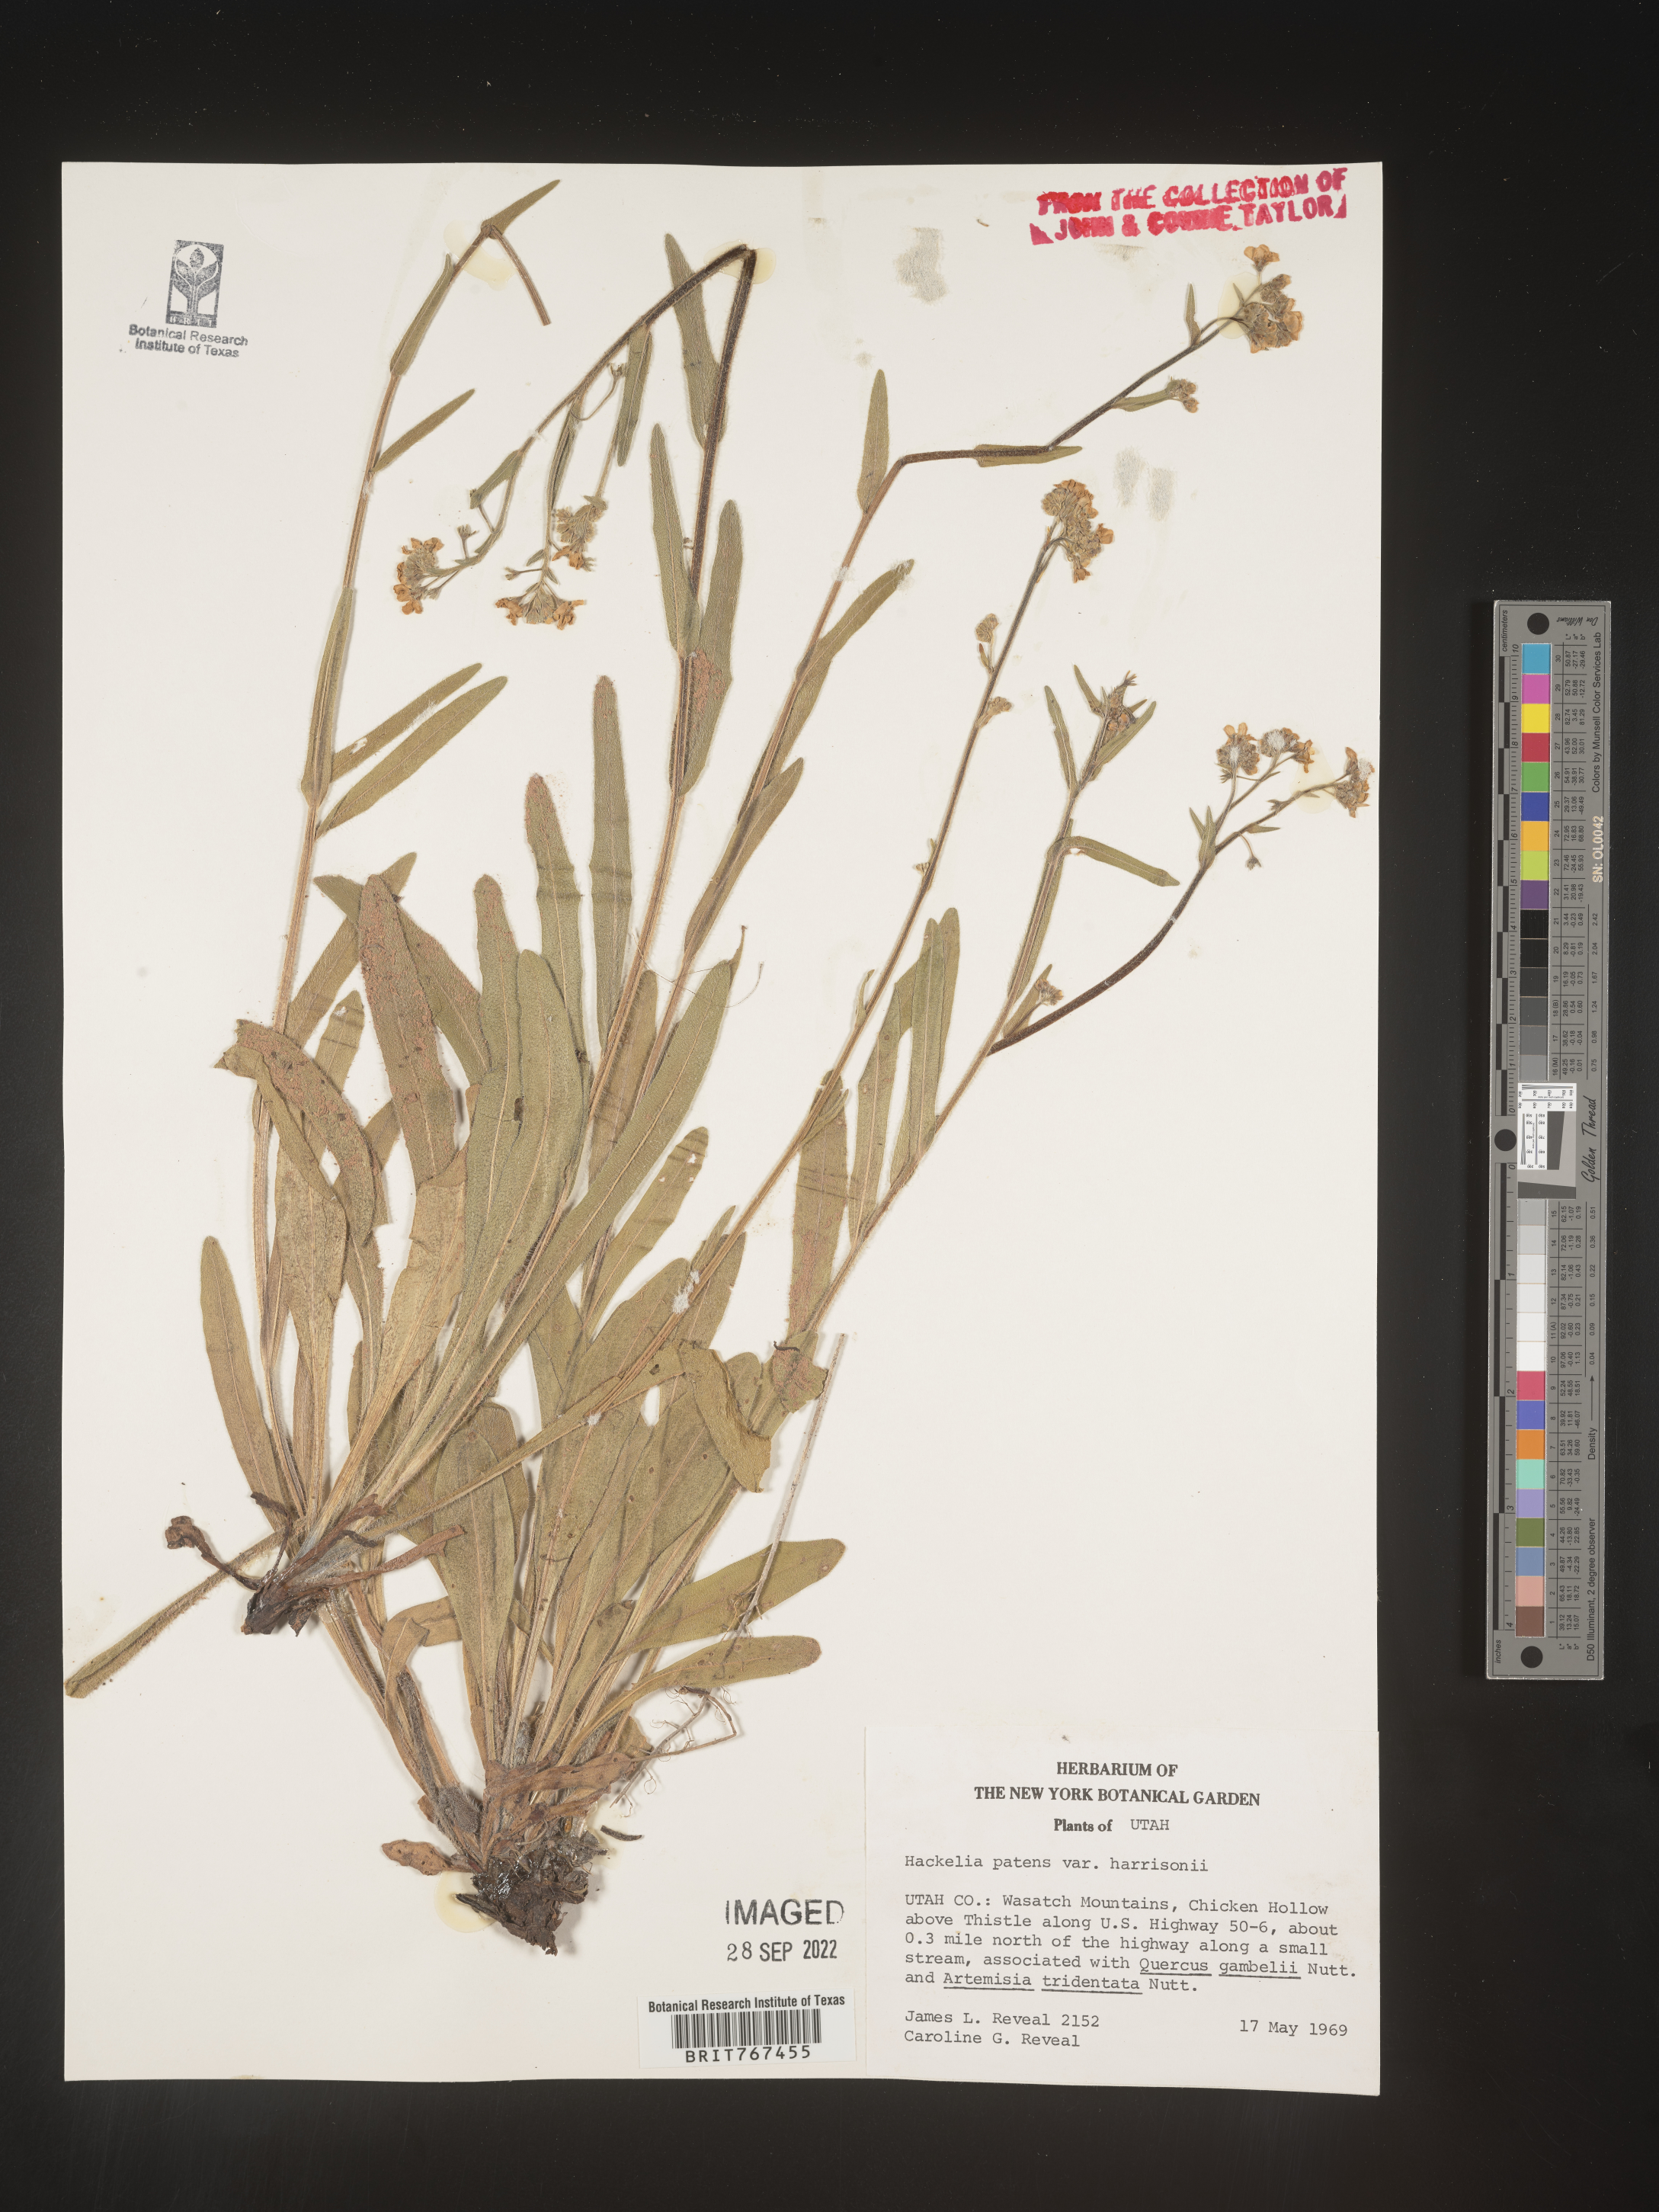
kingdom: Plantae
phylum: Tracheophyta
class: Magnoliopsida
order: Boraginales
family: Boraginaceae
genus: Hackelia
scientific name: Hackelia
